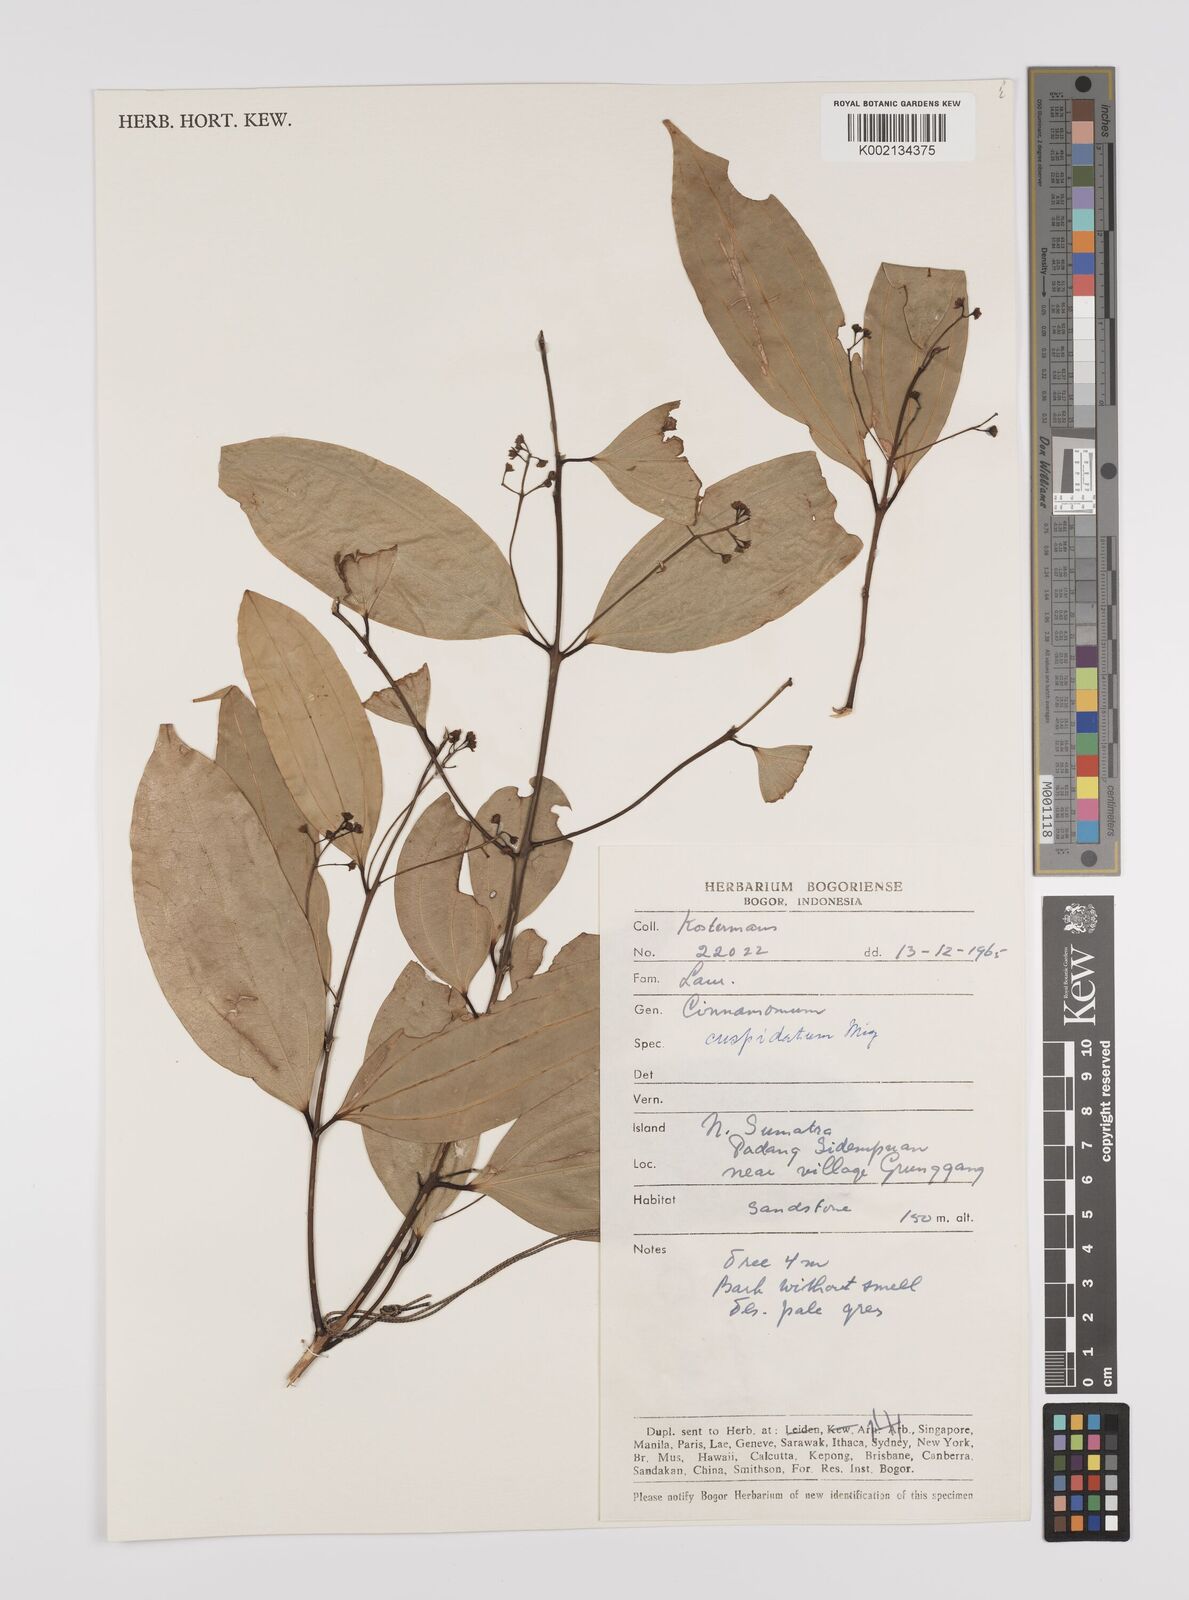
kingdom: Plantae
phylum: Tracheophyta
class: Magnoliopsida
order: Laurales
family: Lauraceae
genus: Cinnamomum
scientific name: Cinnamomum cuspidatum
